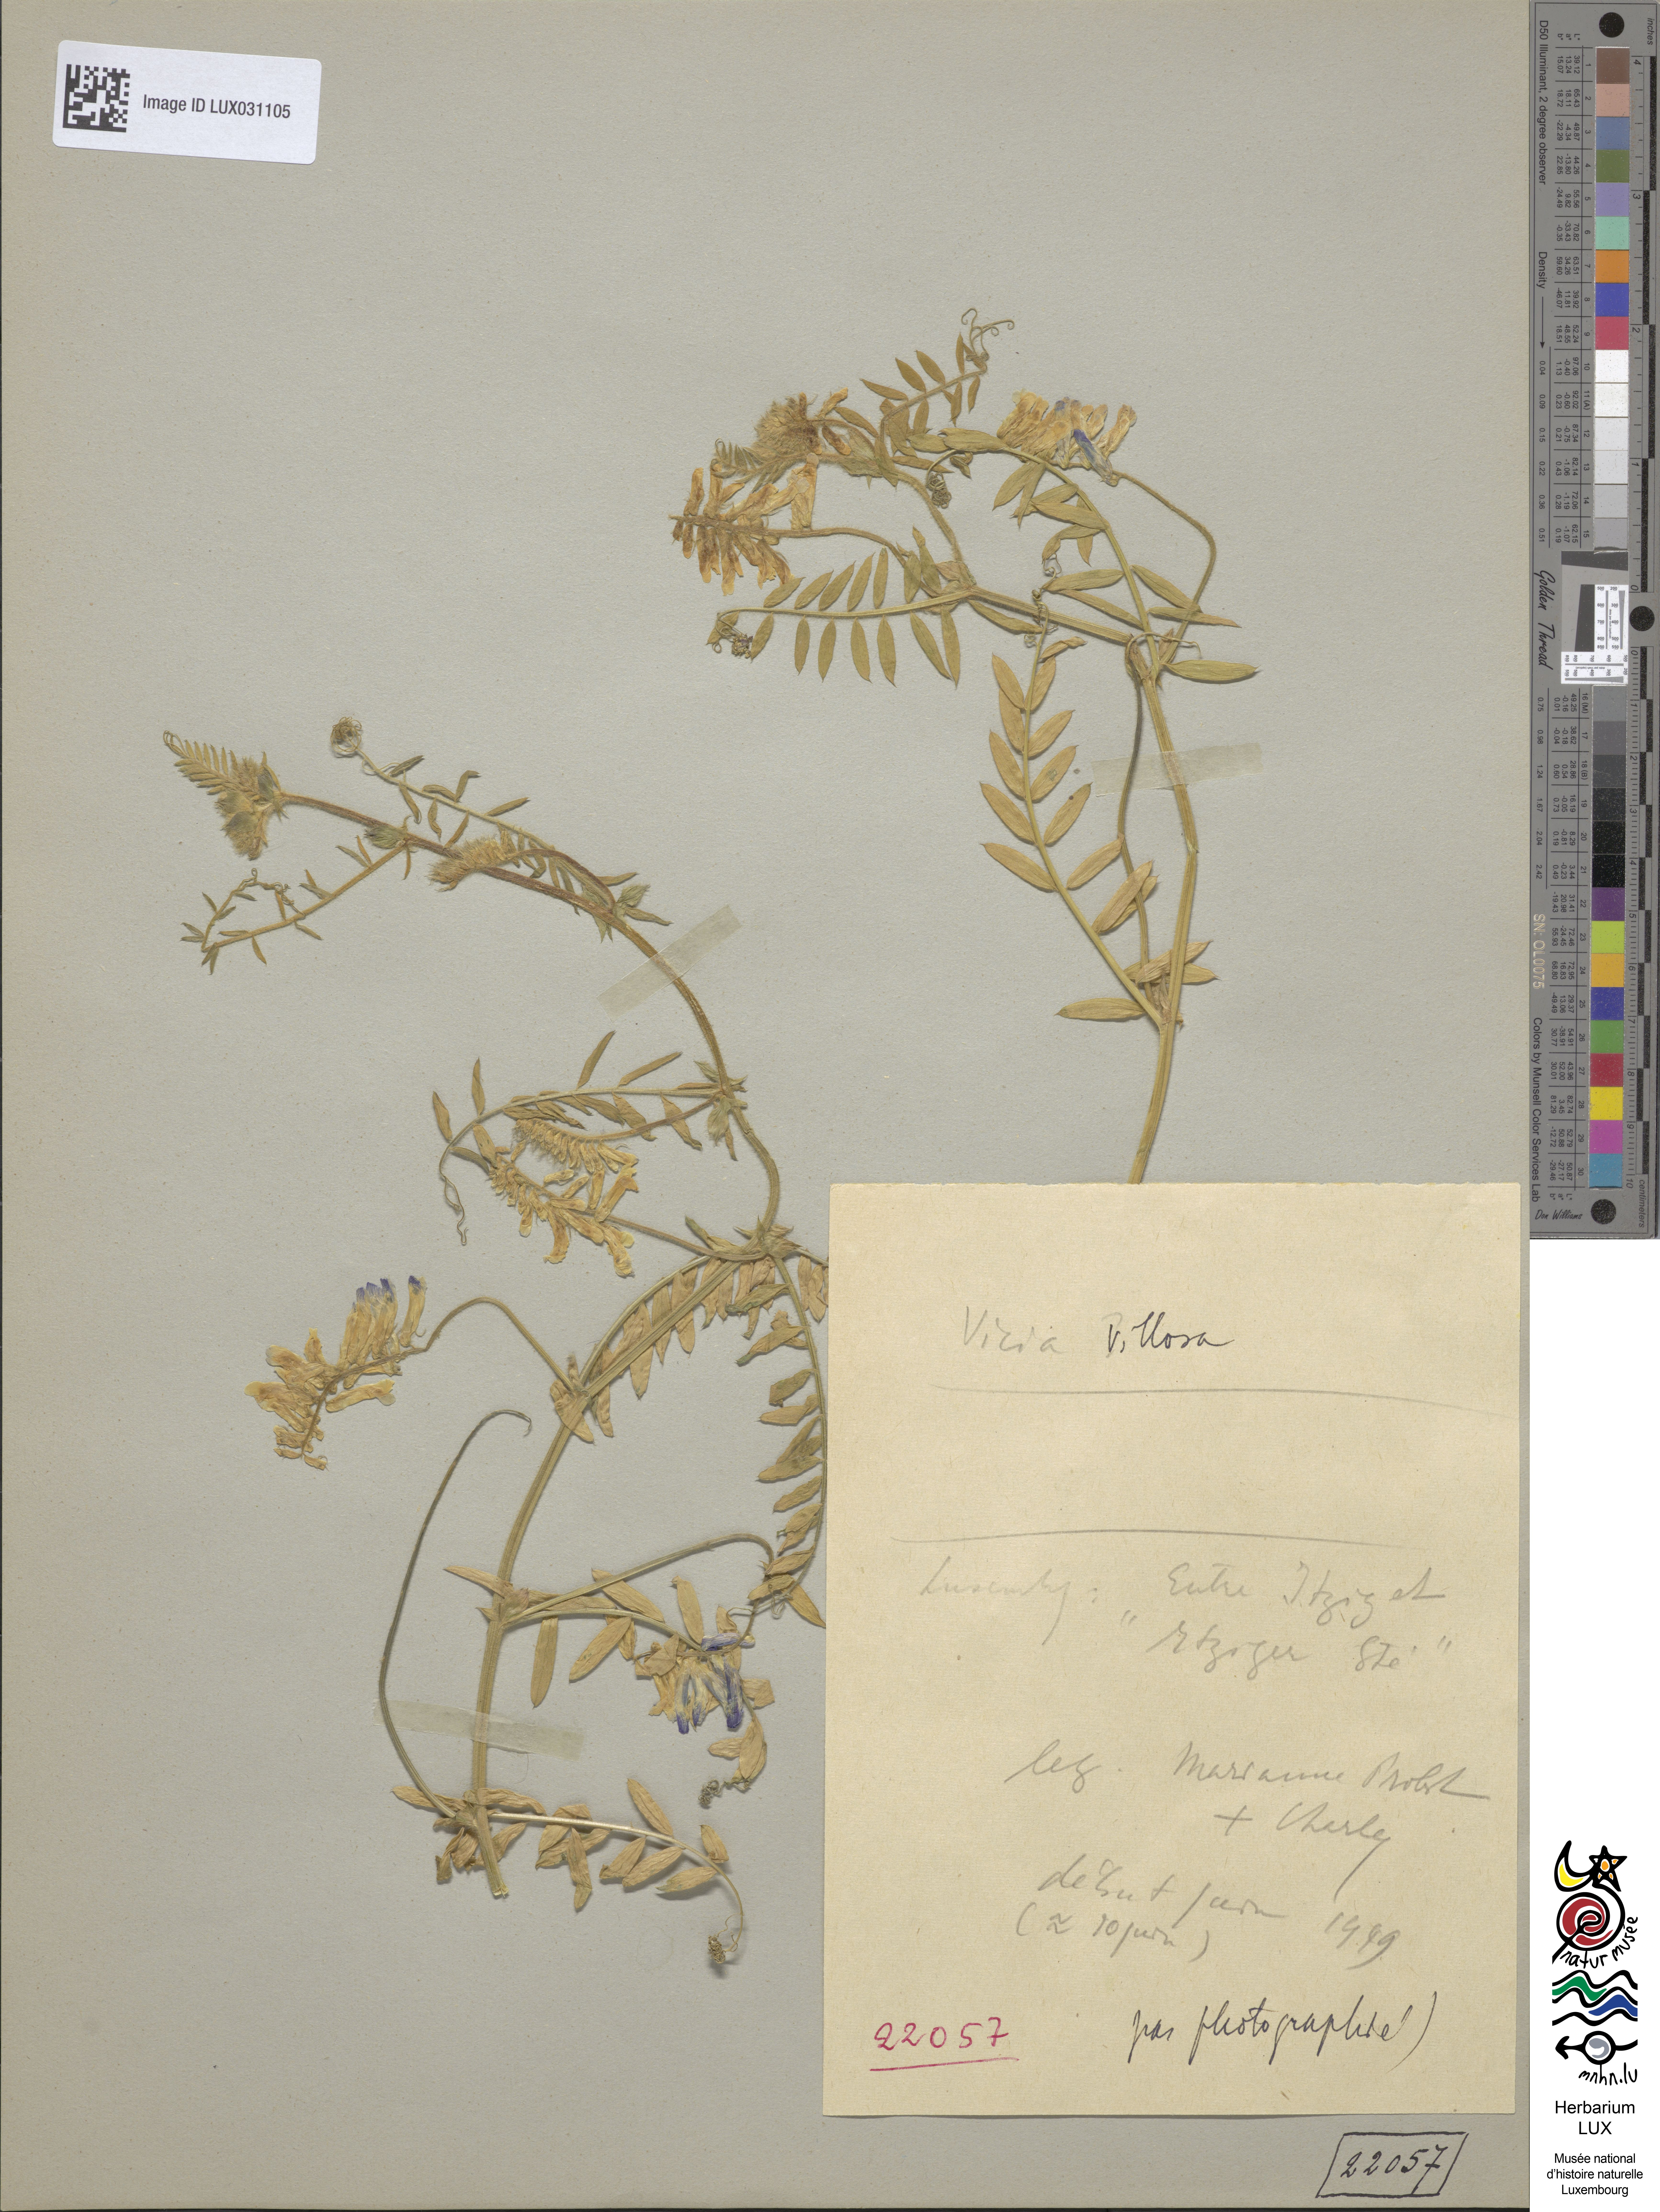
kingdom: Plantae
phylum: Tracheophyta
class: Magnoliopsida
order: Fabales
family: Fabaceae
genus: Vicia
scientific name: Vicia villosa
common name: Fodder vetch
